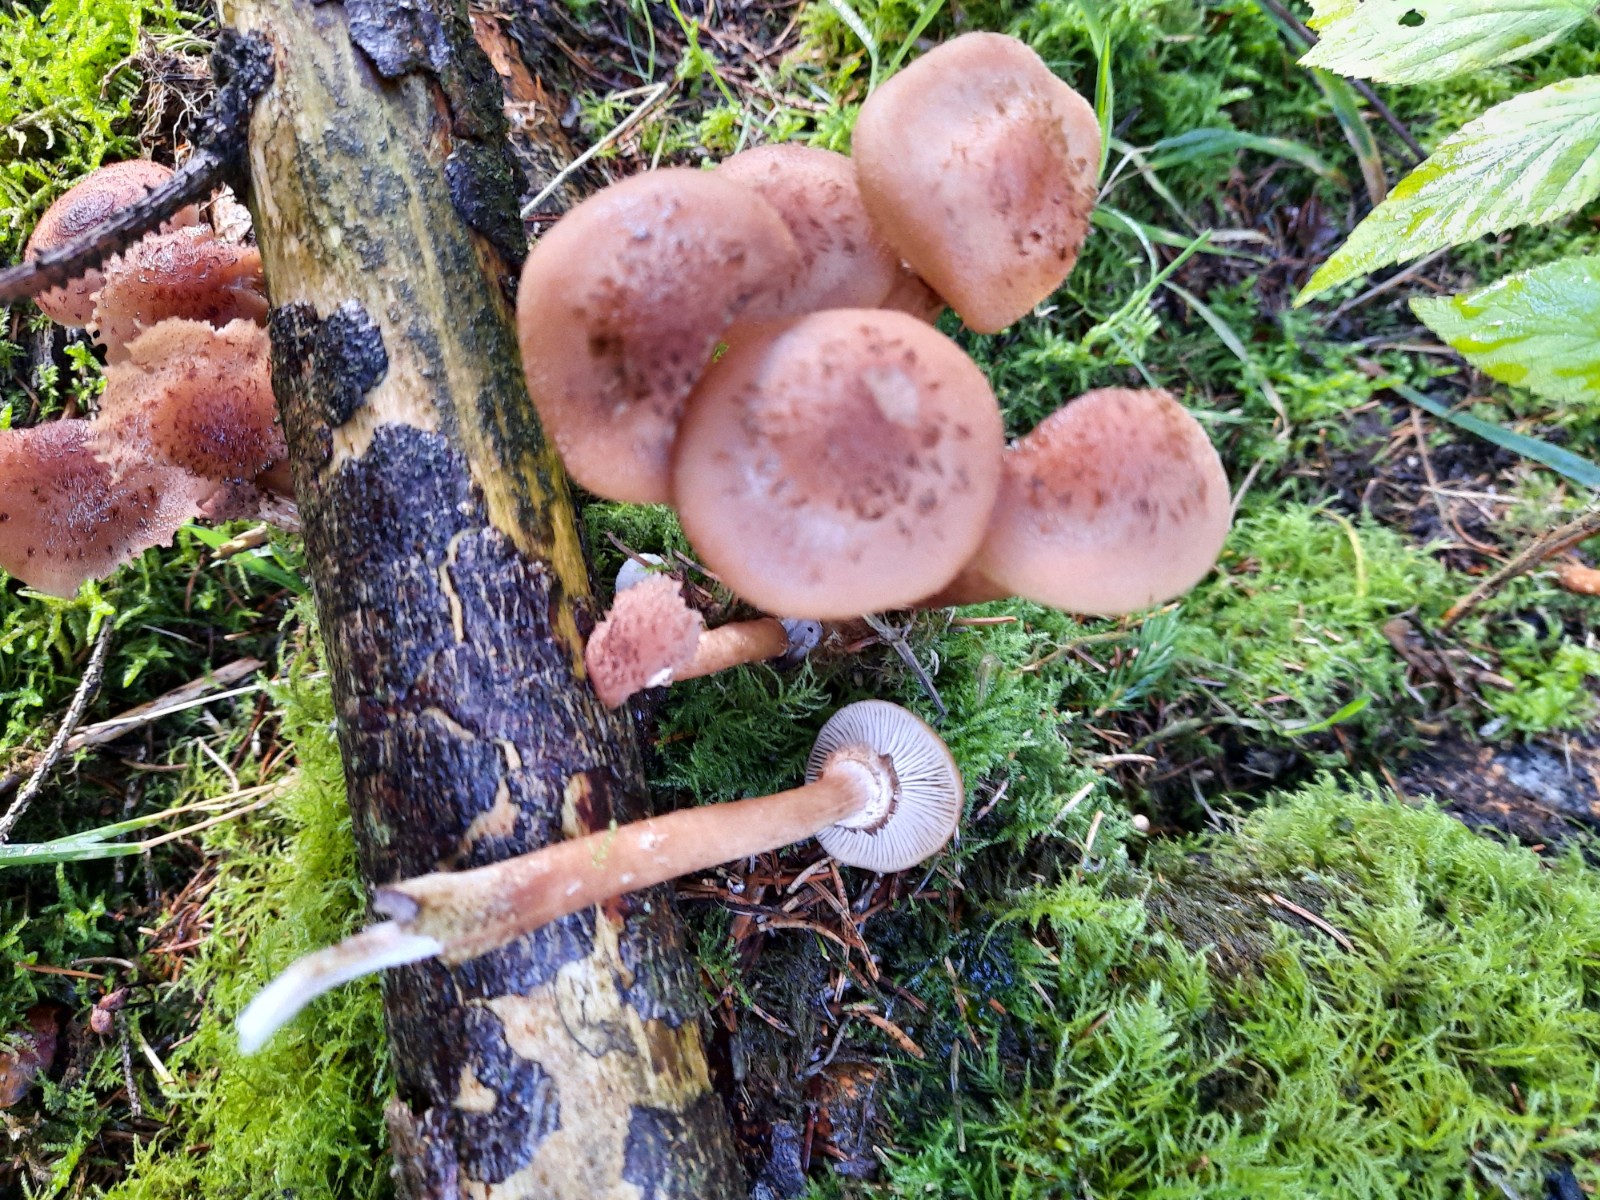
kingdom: Fungi
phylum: Basidiomycota
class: Agaricomycetes
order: Agaricales
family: Physalacriaceae
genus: Armillaria
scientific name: Armillaria ostoyae
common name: mørk honningsvamp
